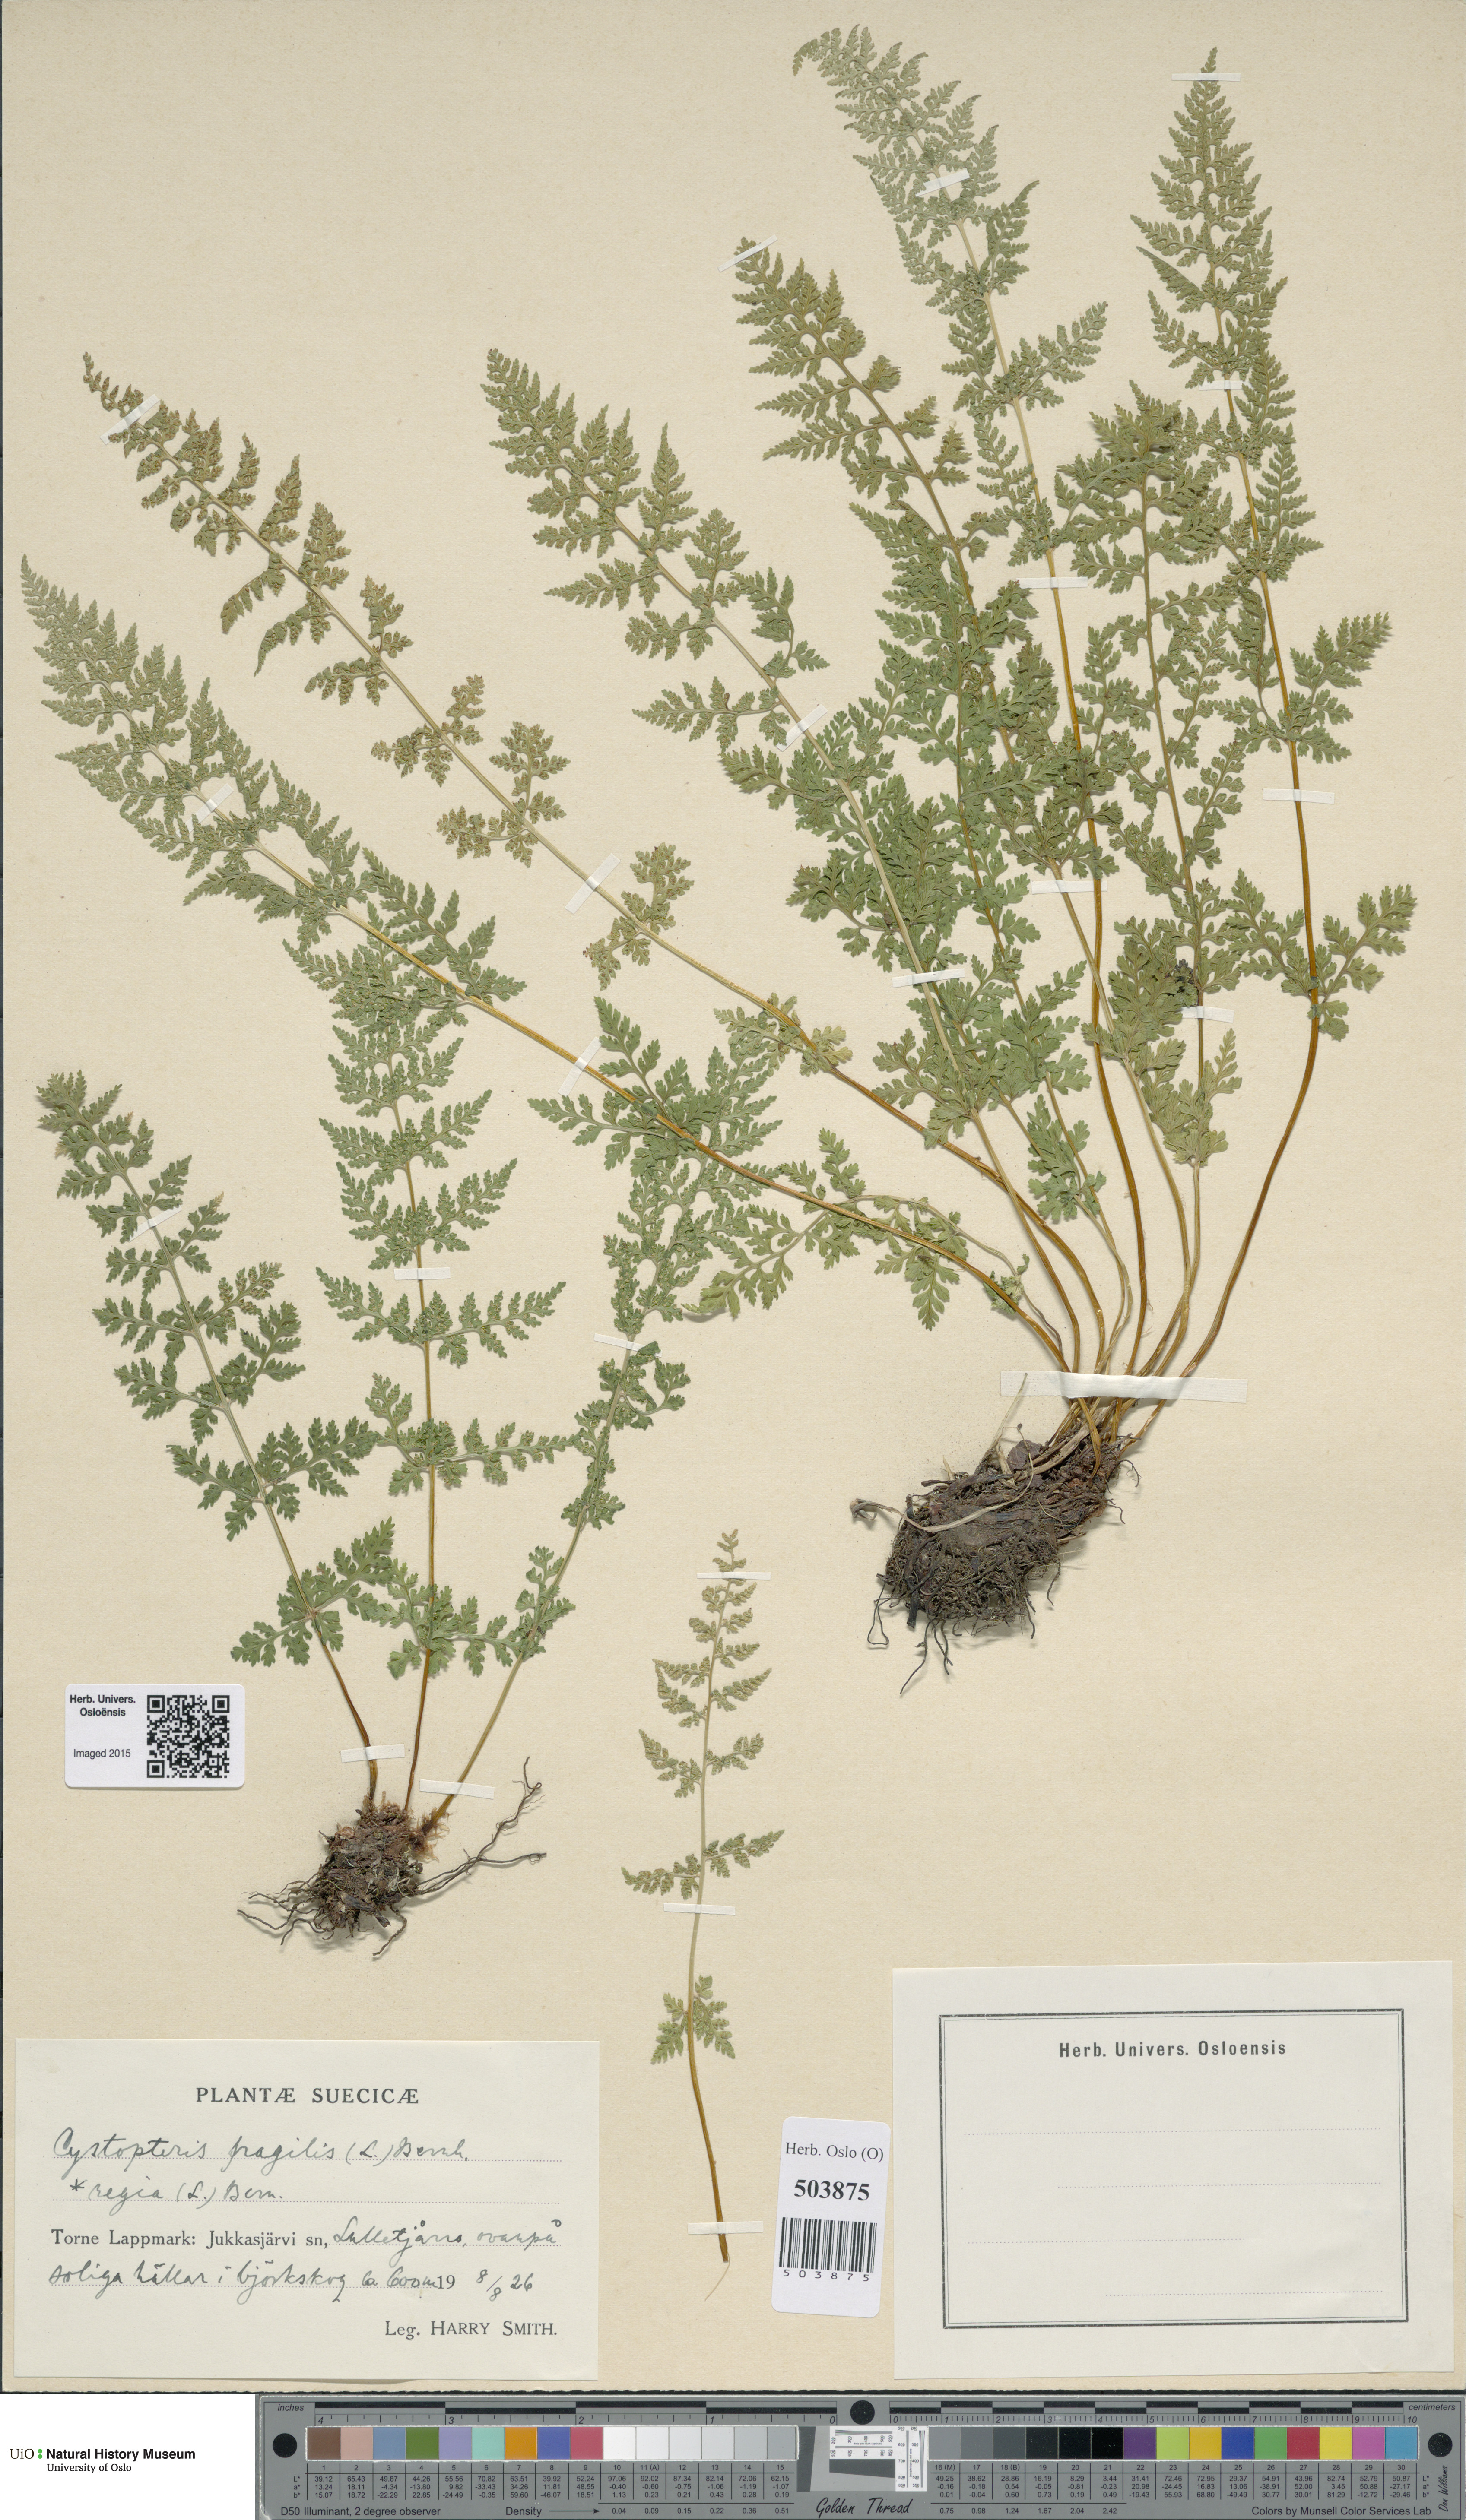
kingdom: Plantae
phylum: Tracheophyta
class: Polypodiopsida
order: Polypodiales
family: Cystopteridaceae
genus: Cystopteris
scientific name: Cystopteris alpina
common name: Alpine bladder-fern
